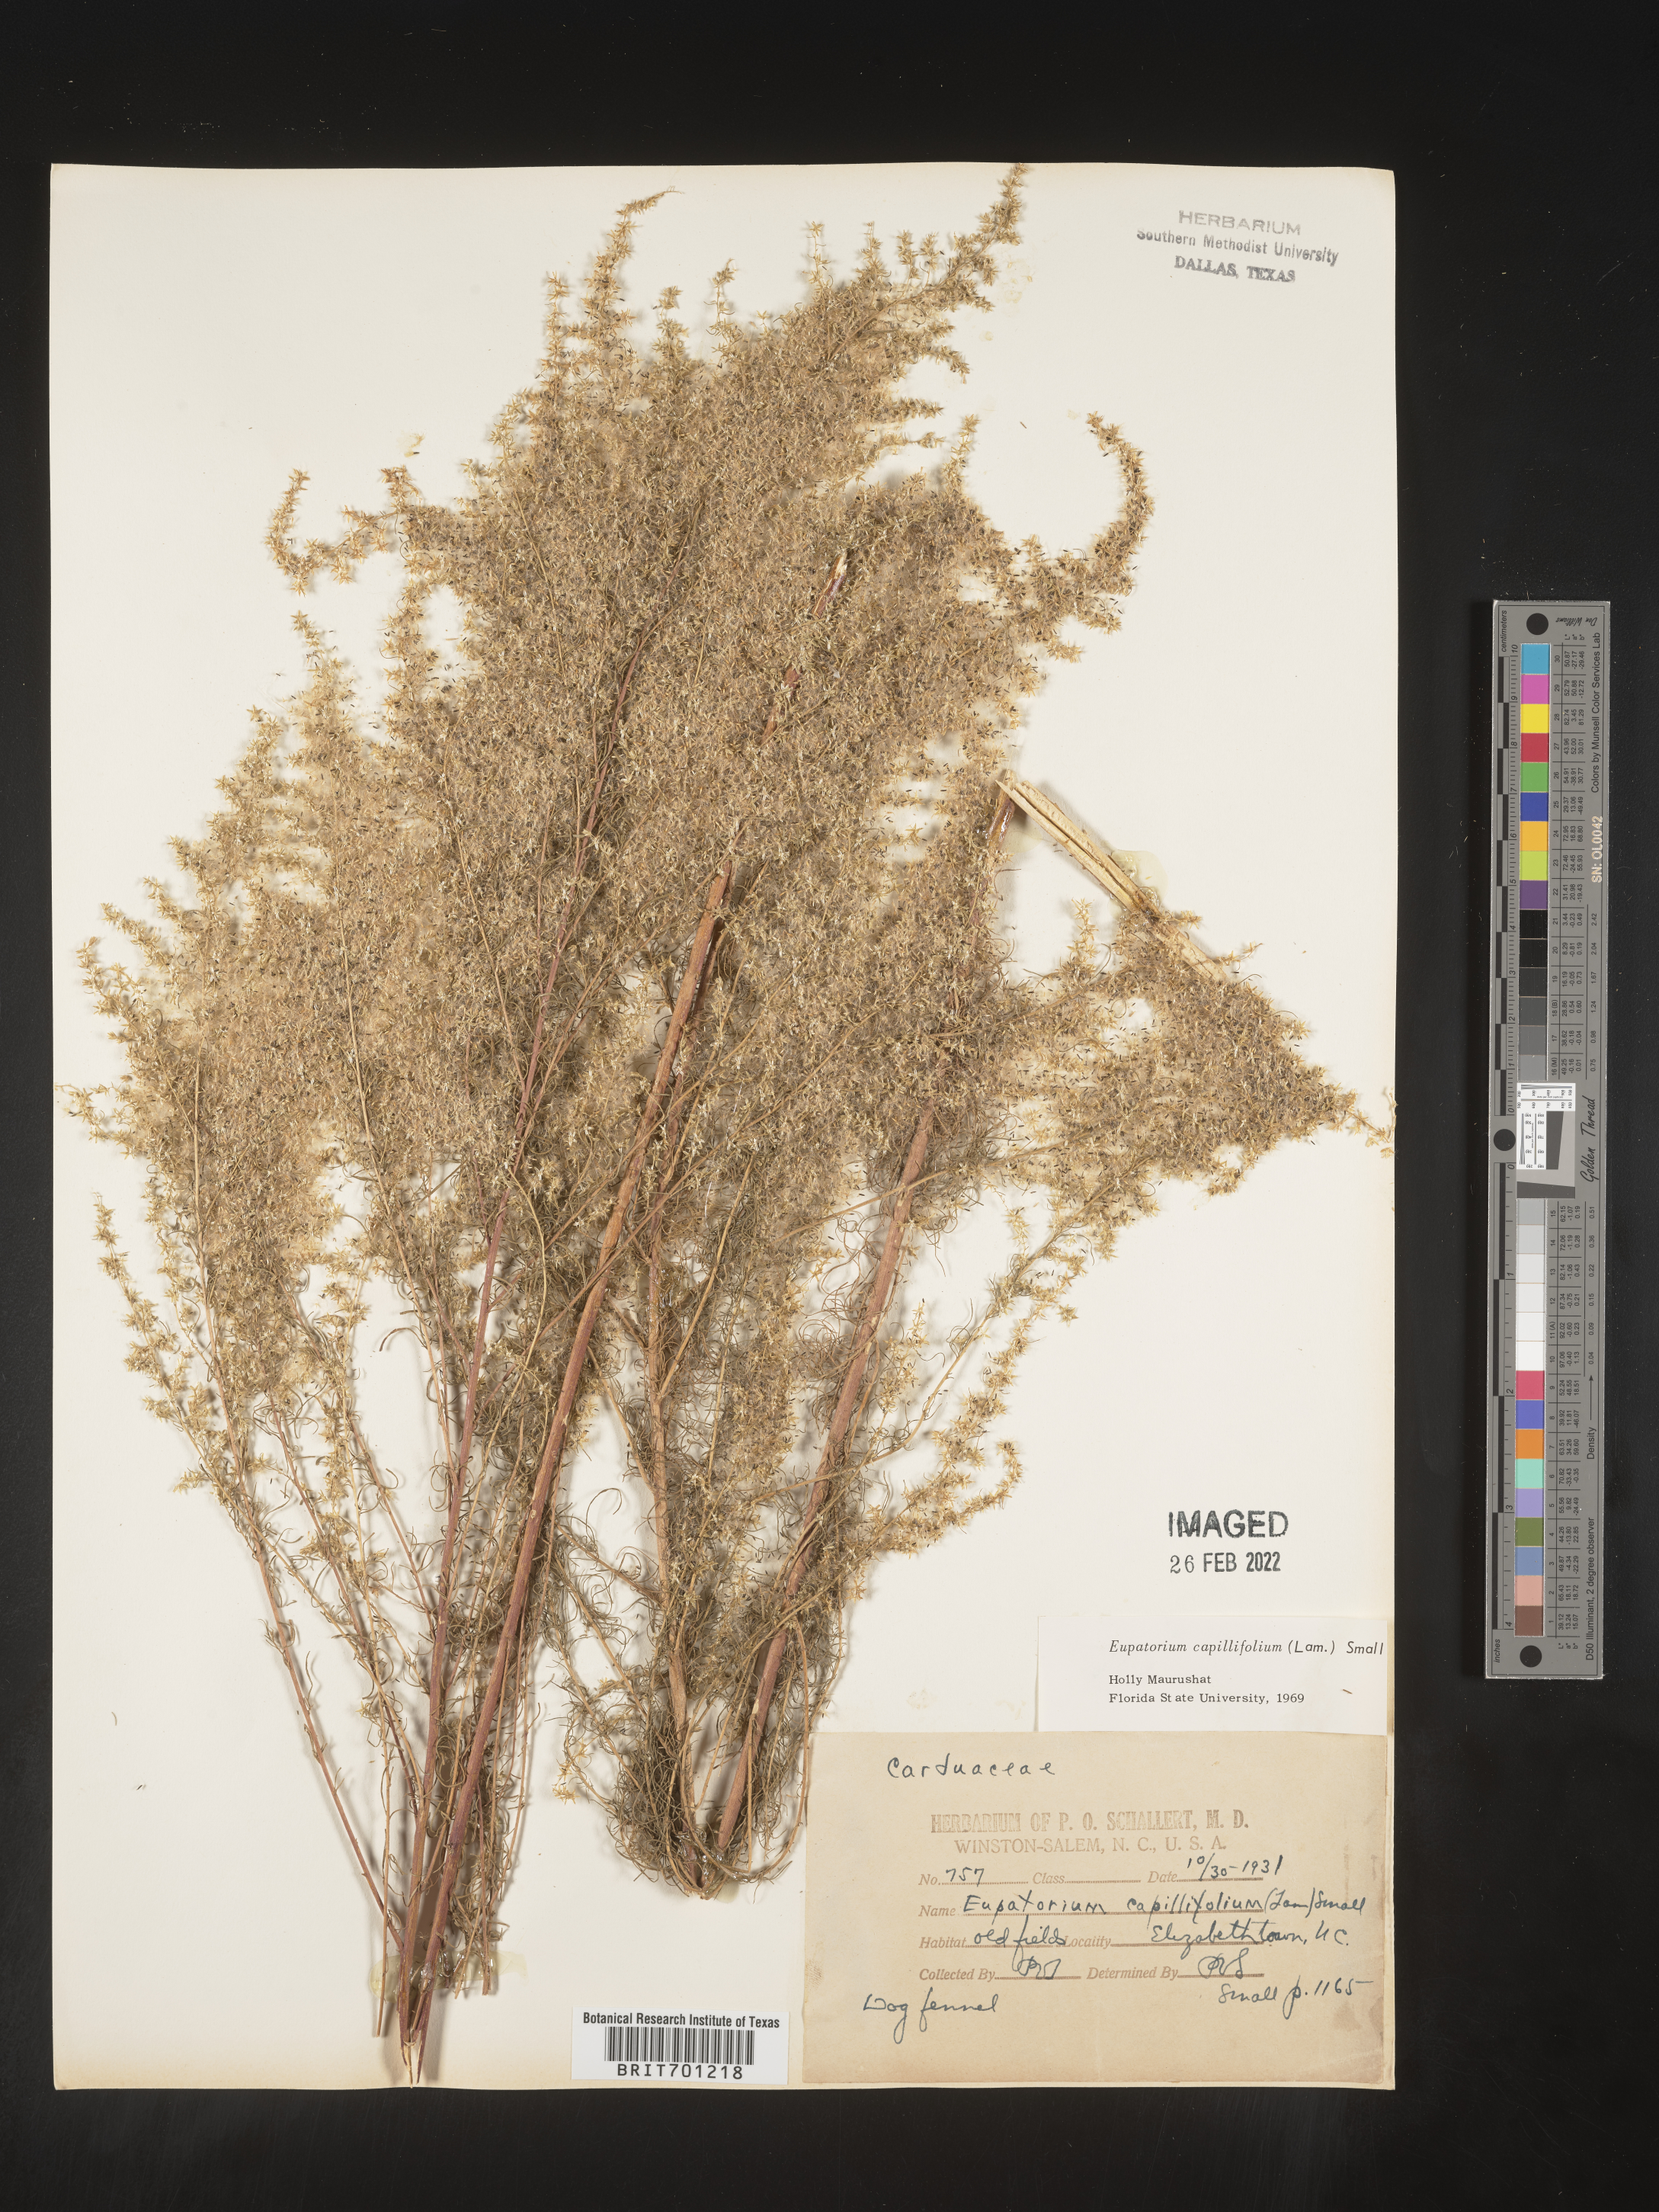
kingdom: Plantae
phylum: Tracheophyta
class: Magnoliopsida
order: Asterales
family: Asteraceae
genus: Eupatorium
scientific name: Eupatorium capillifolium
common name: Dog-fennel
